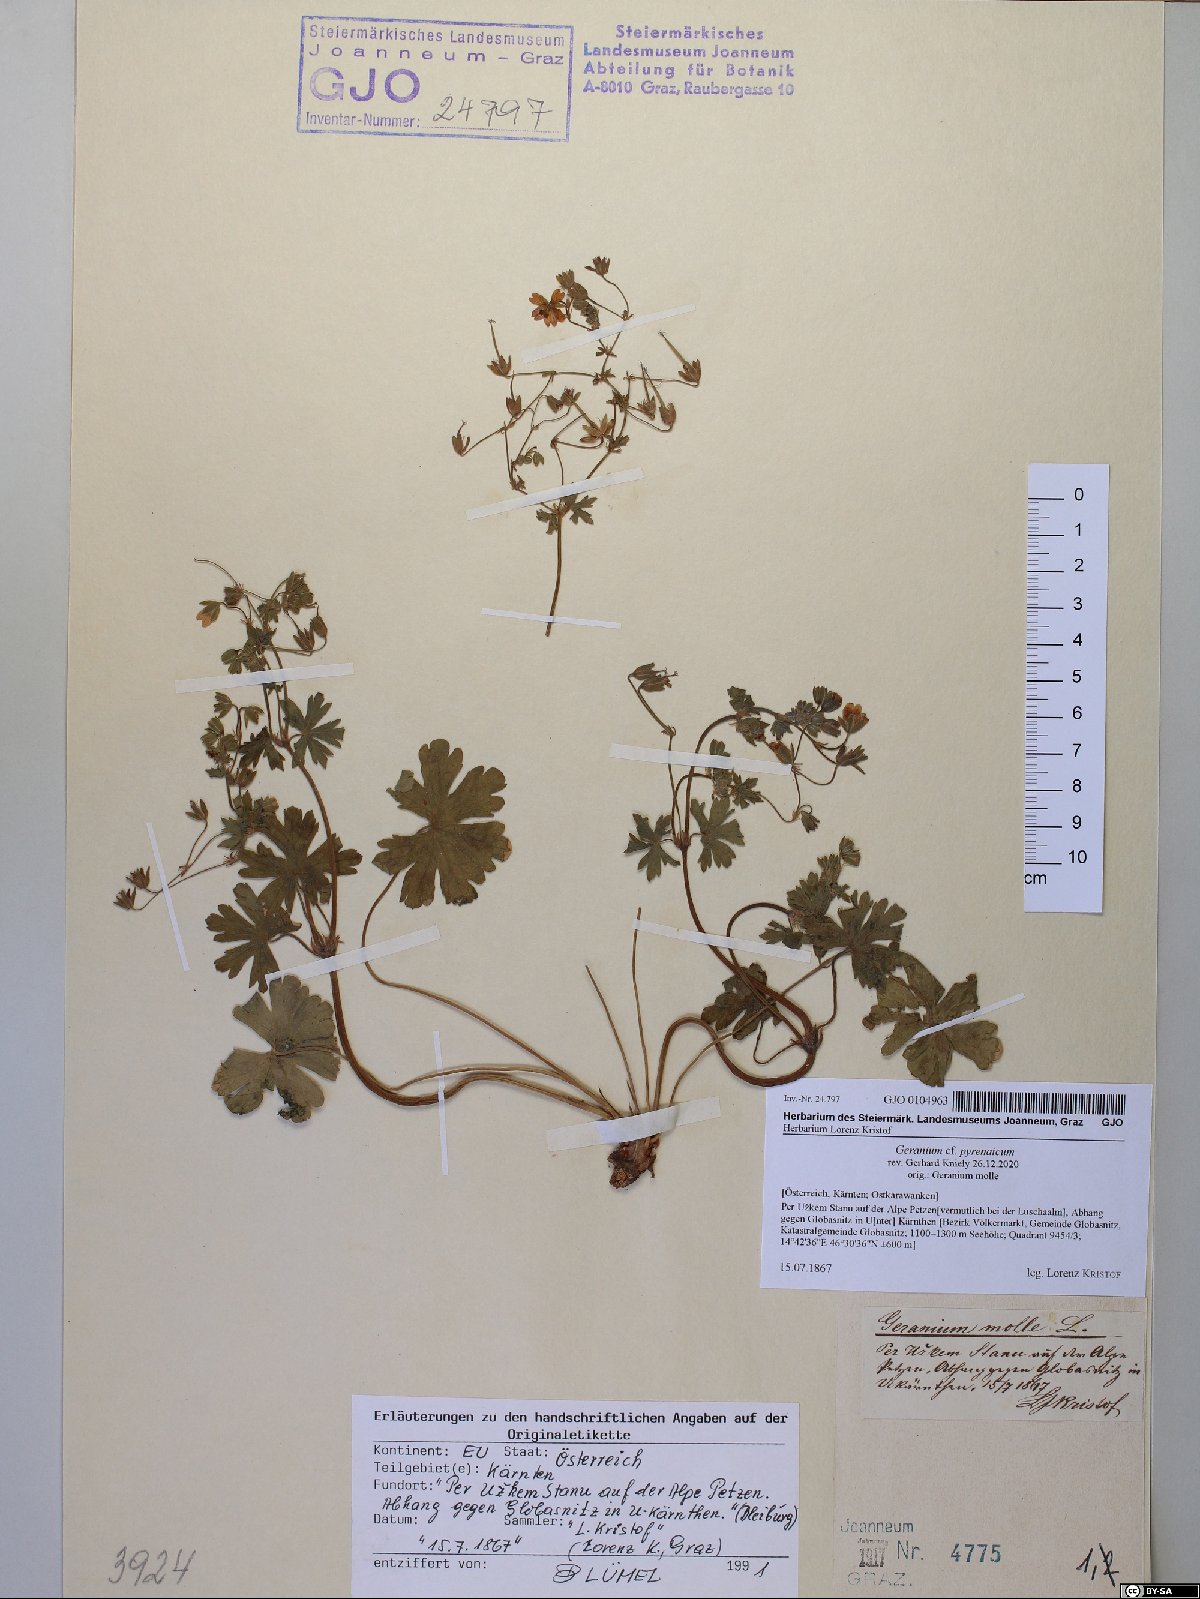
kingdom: Plantae
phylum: Tracheophyta
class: Magnoliopsida
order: Geraniales
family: Geraniaceae
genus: Geranium
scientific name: Geranium pyrenaicum
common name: Hedgerow crane's-bill
